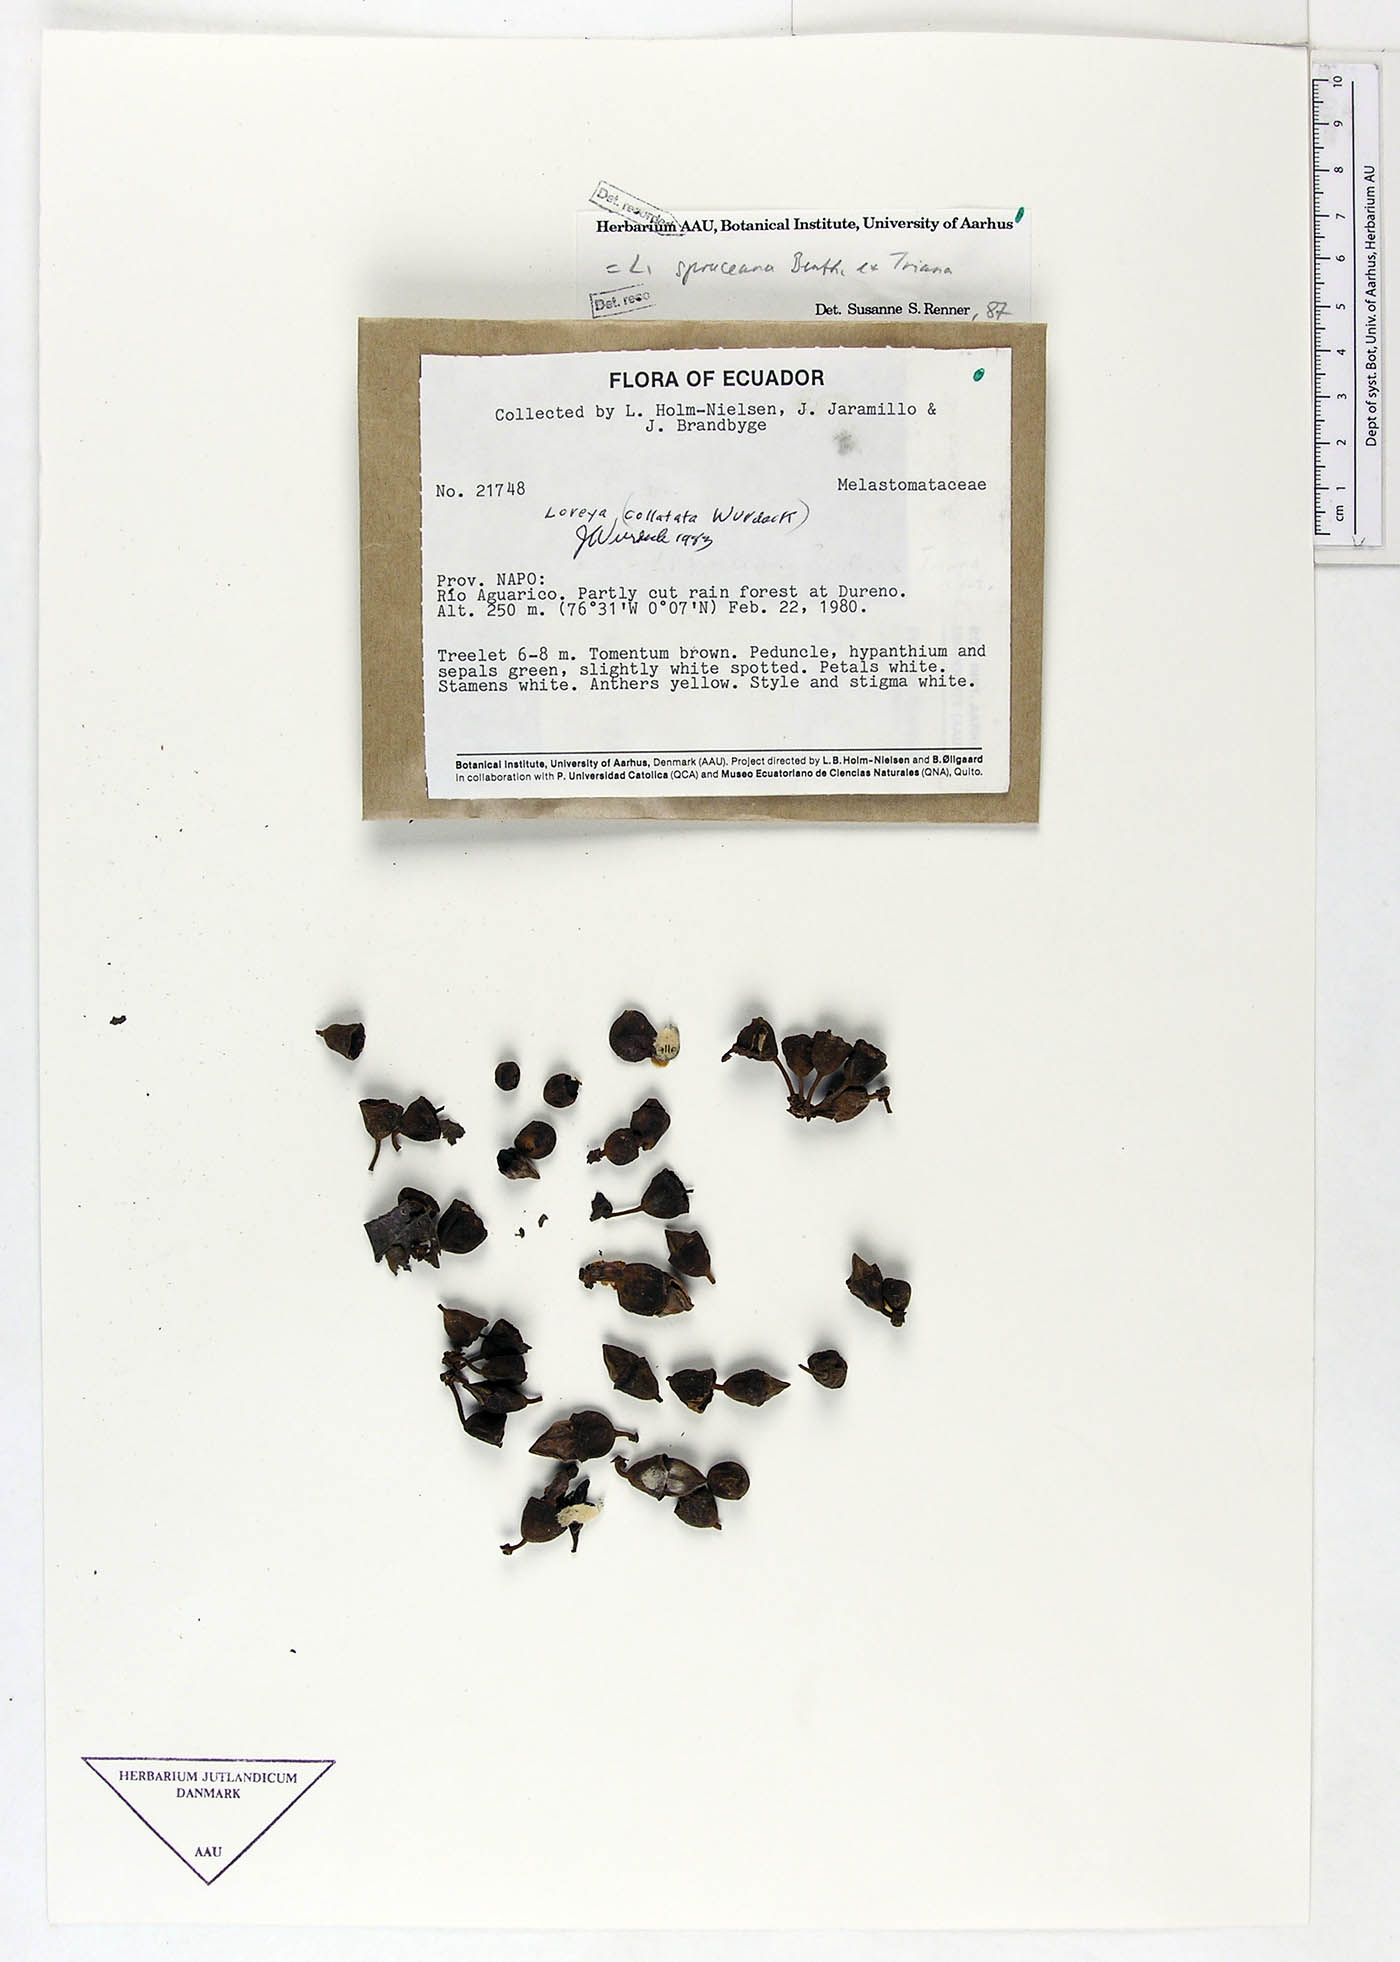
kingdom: Plantae
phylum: Tracheophyta
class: Magnoliopsida
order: Myrtales
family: Melastomataceae
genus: Bellucia
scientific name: Bellucia spruceana
